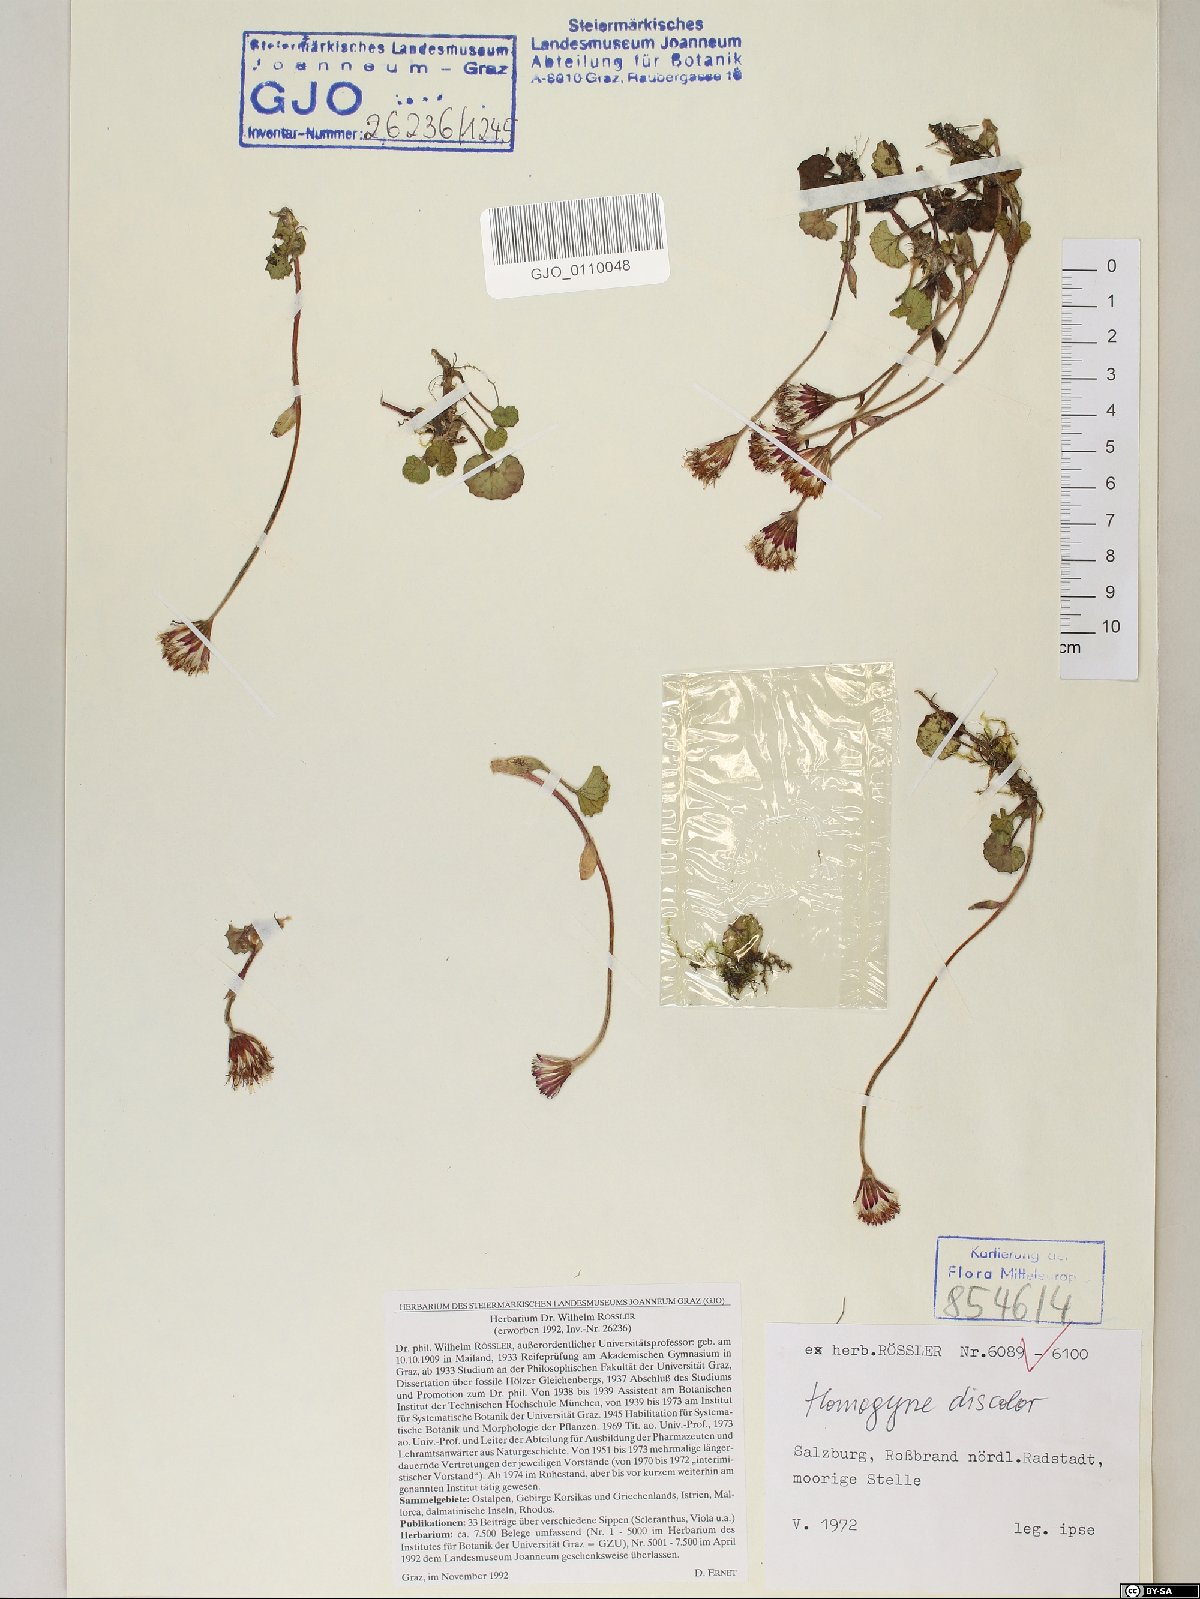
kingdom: Plantae
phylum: Tracheophyta
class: Magnoliopsida
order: Asterales
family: Asteraceae
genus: Homogyne
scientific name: Homogyne discolor
